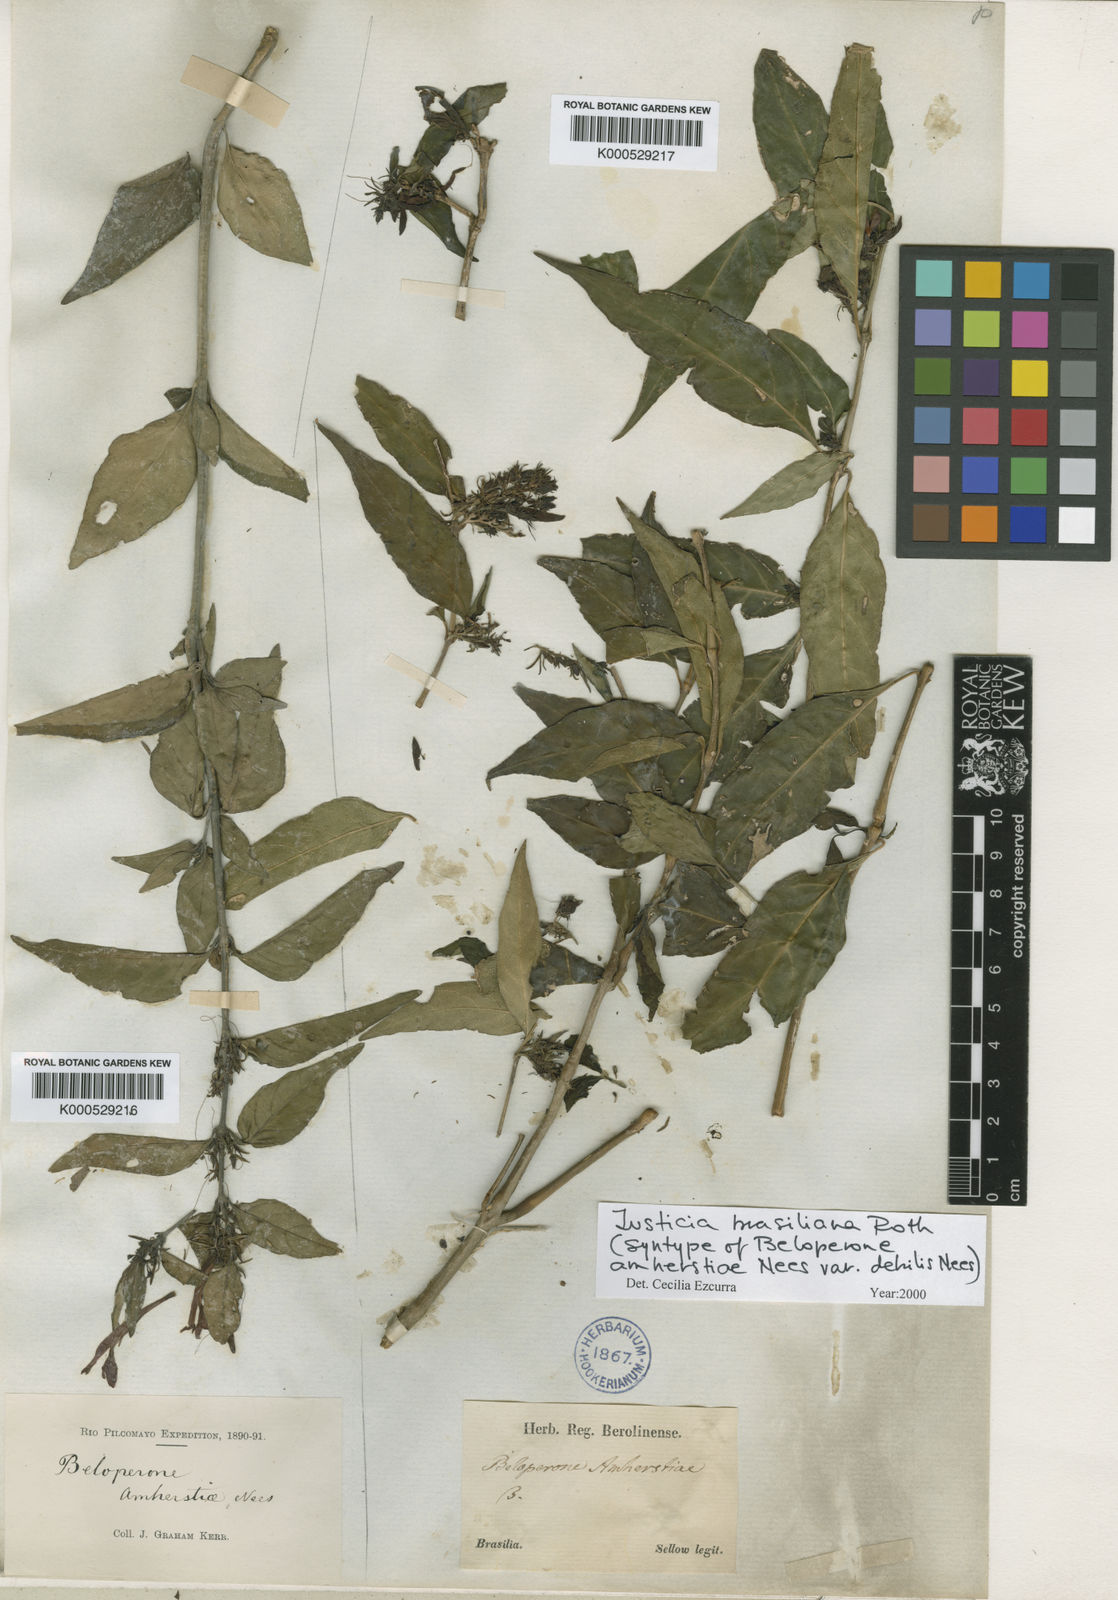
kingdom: Plantae
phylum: Tracheophyta
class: Magnoliopsida
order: Lamiales
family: Acanthaceae
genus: Justicia
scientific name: Justicia brasiliana
